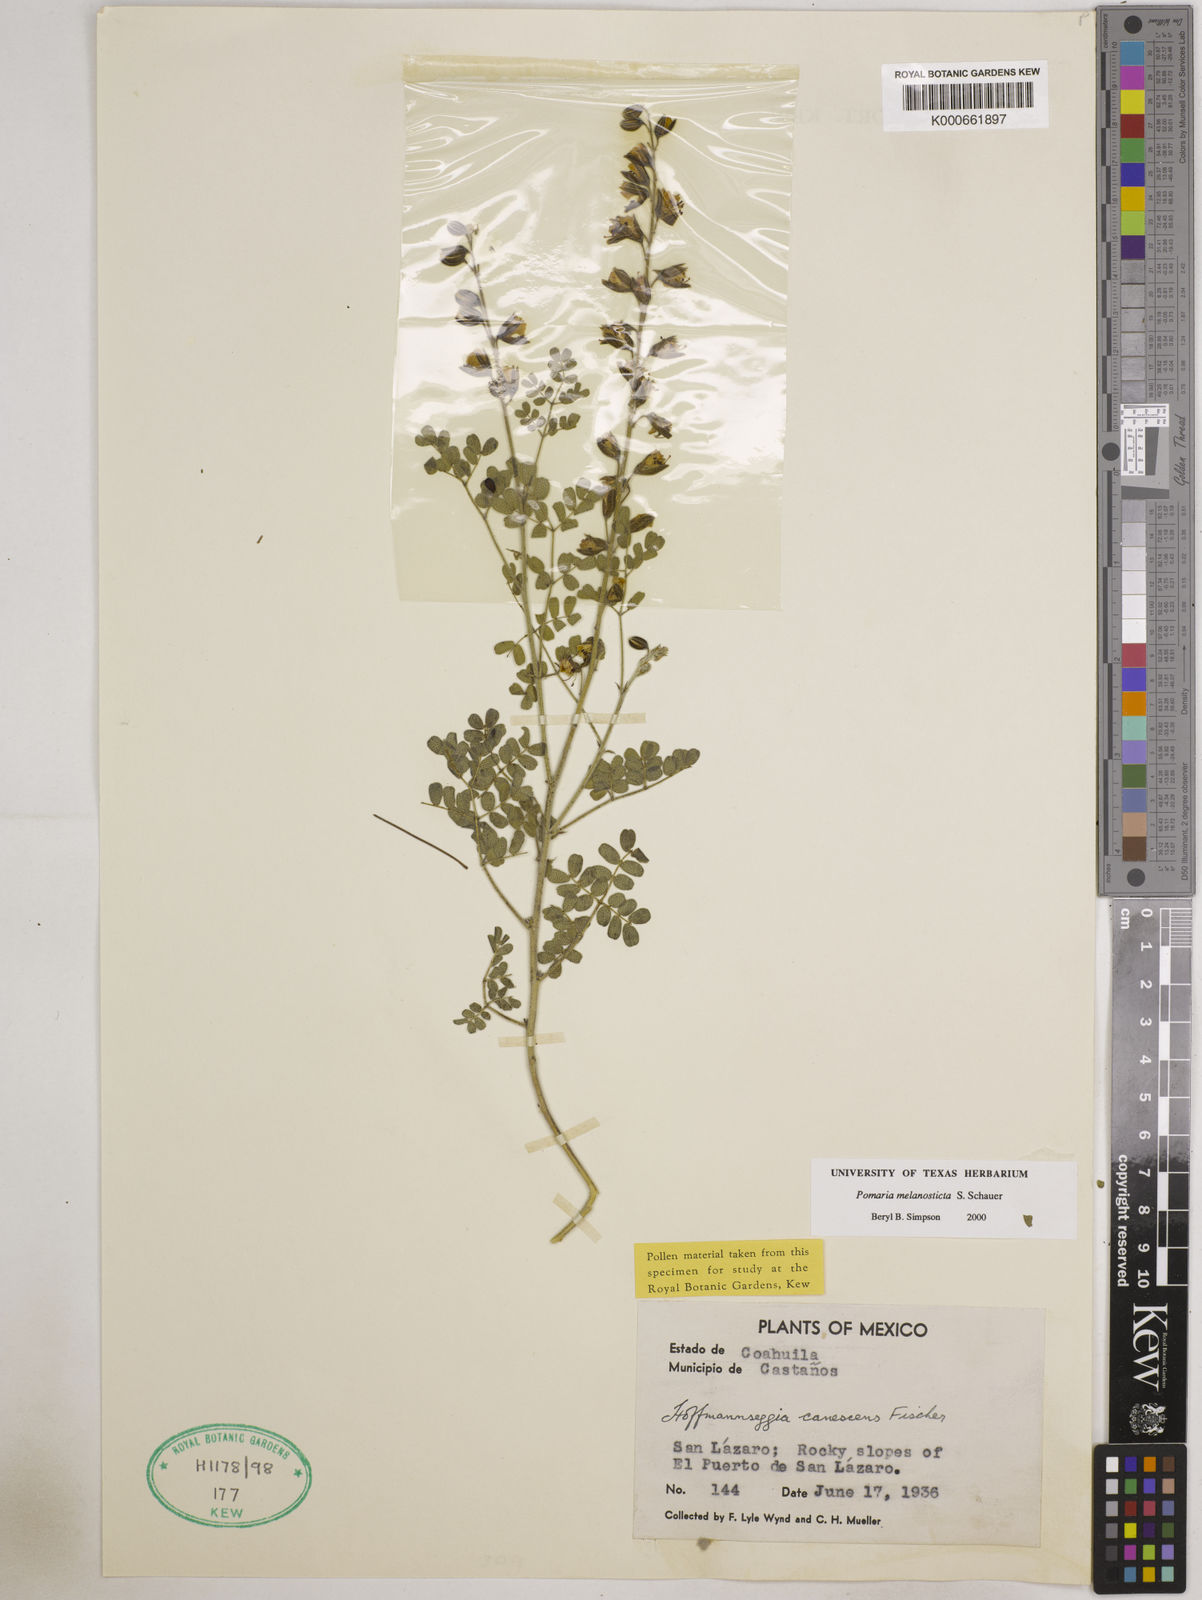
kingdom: Plantae
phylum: Tracheophyta
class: Magnoliopsida
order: Fabales
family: Fabaceae
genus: Pomaria
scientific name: Pomaria melanosticta
